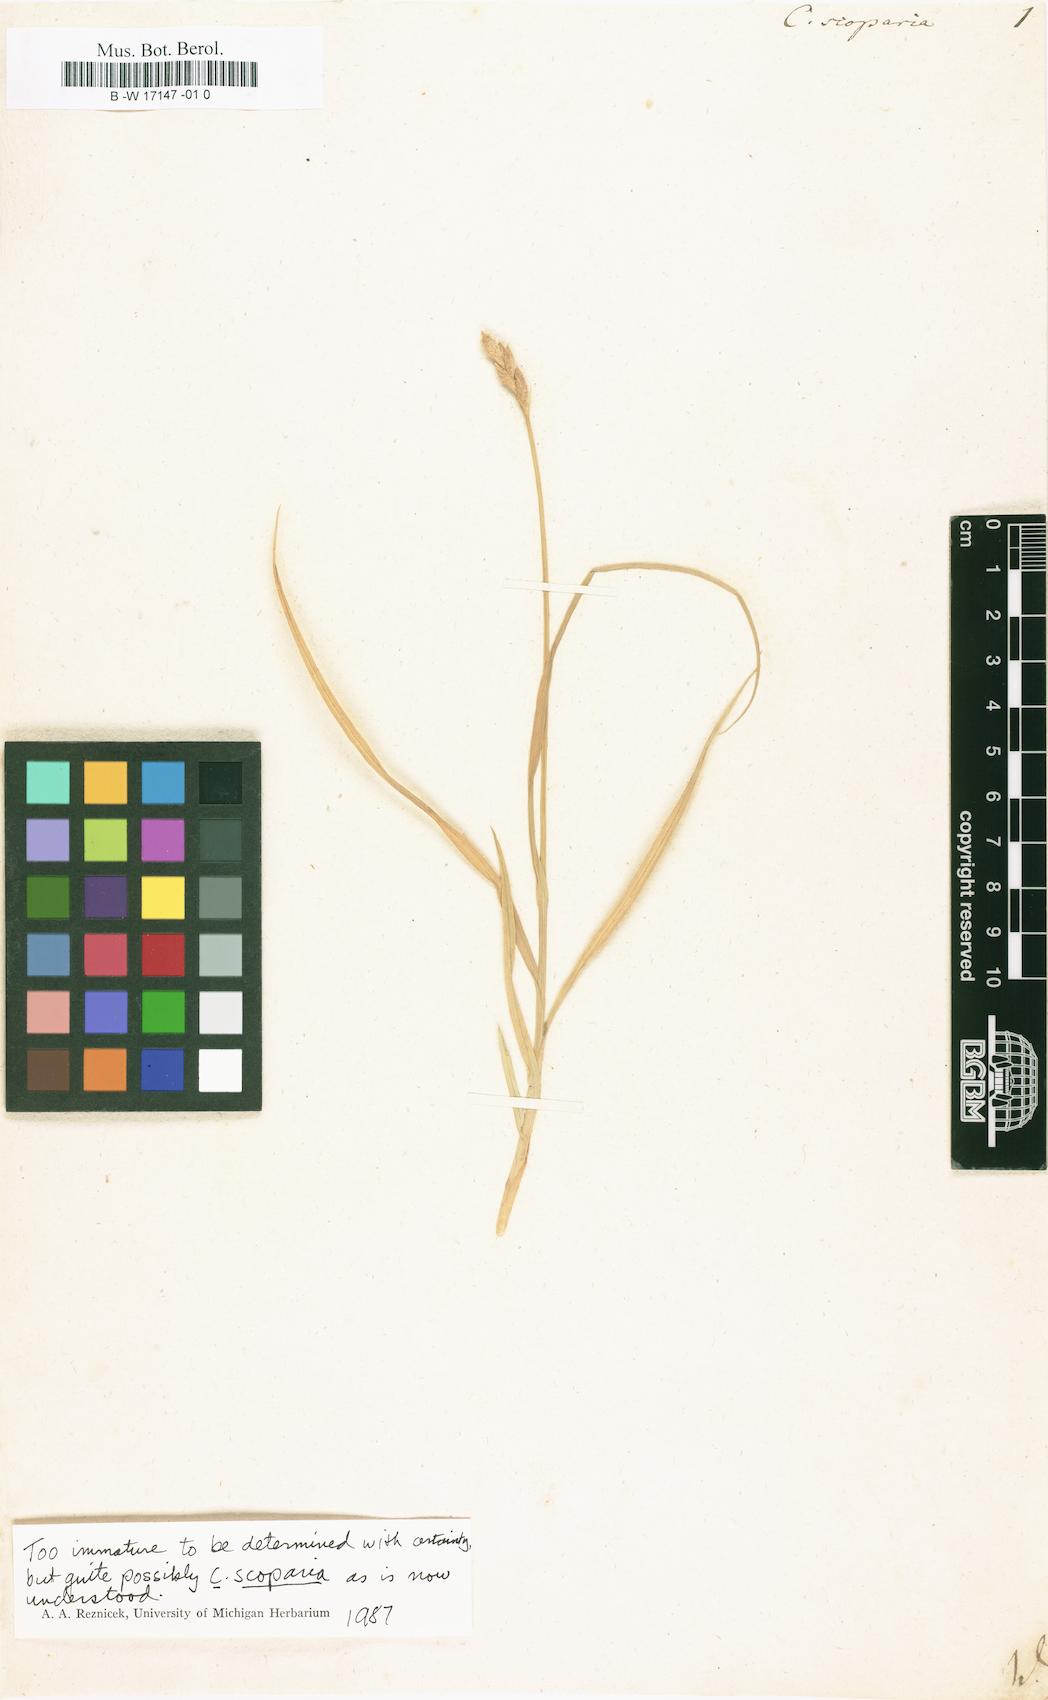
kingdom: Plantae
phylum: Tracheophyta
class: Liliopsida
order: Poales
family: Cyperaceae
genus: Carex
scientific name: Carex scoparia
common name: Broom sedge
